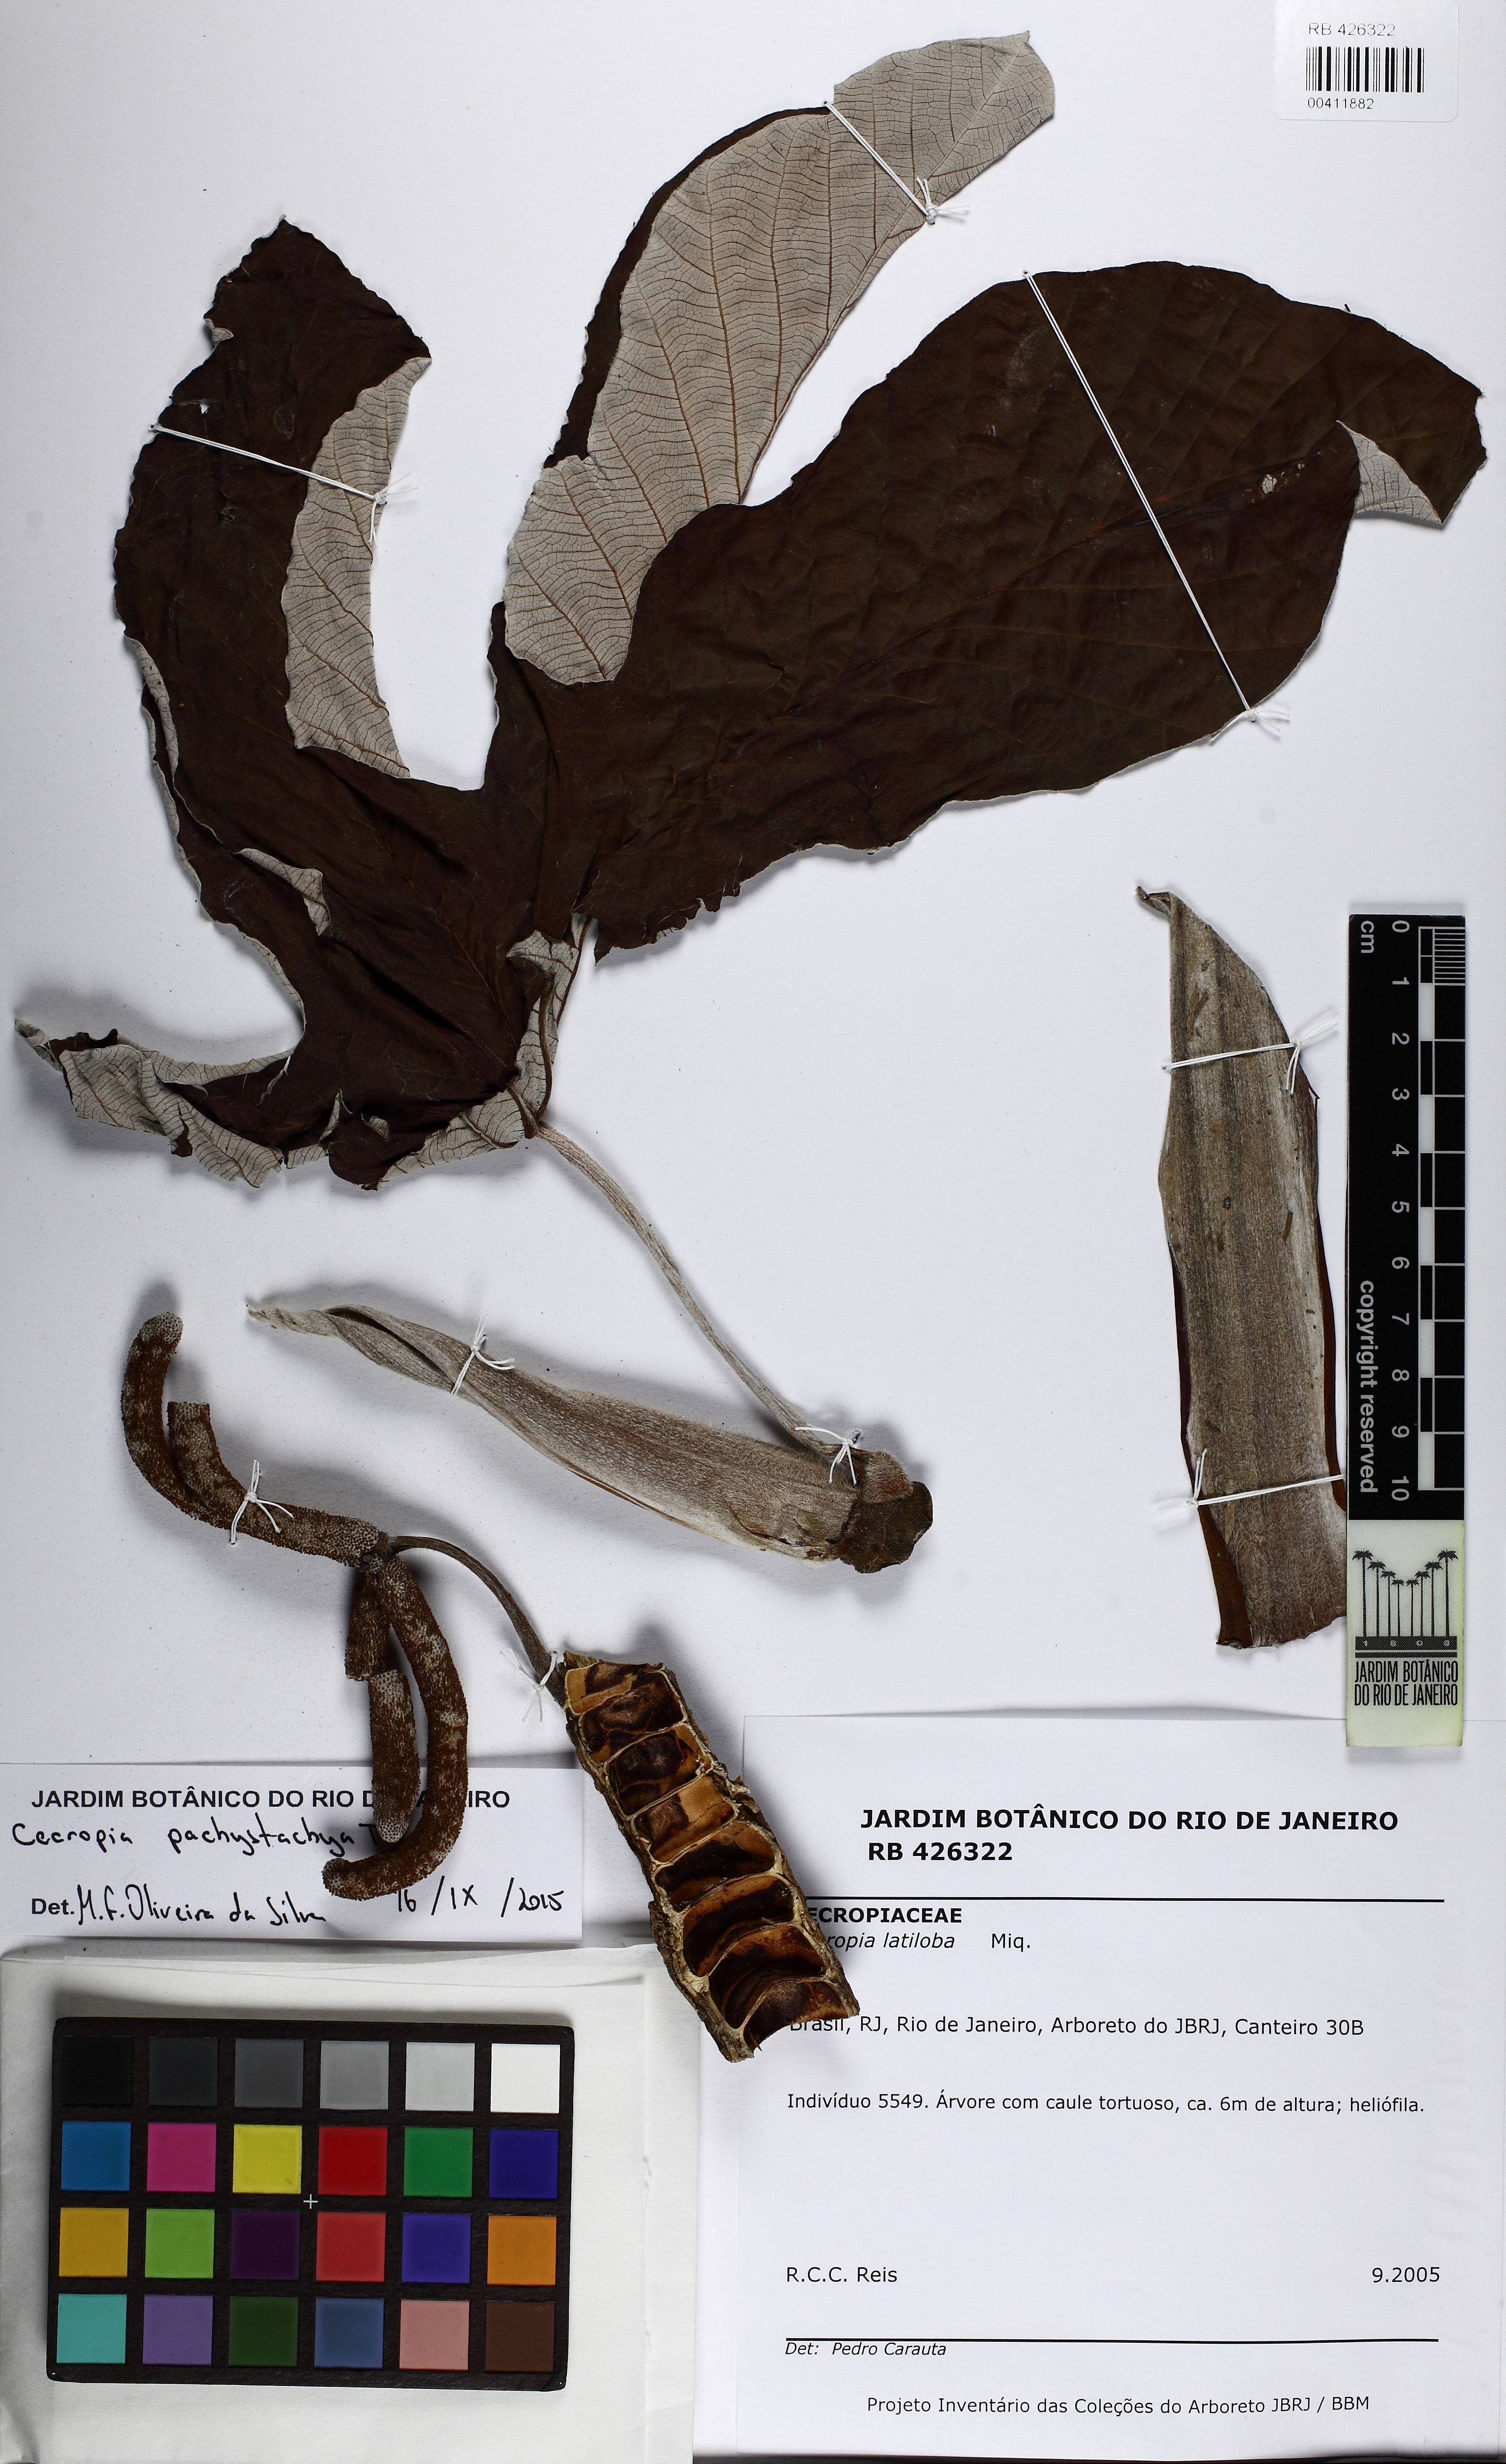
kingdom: Plantae
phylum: Tracheophyta
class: Magnoliopsida
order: Rosales
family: Urticaceae
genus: Cecropia
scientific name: Cecropia pachystachya
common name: Ambay pumpwood
